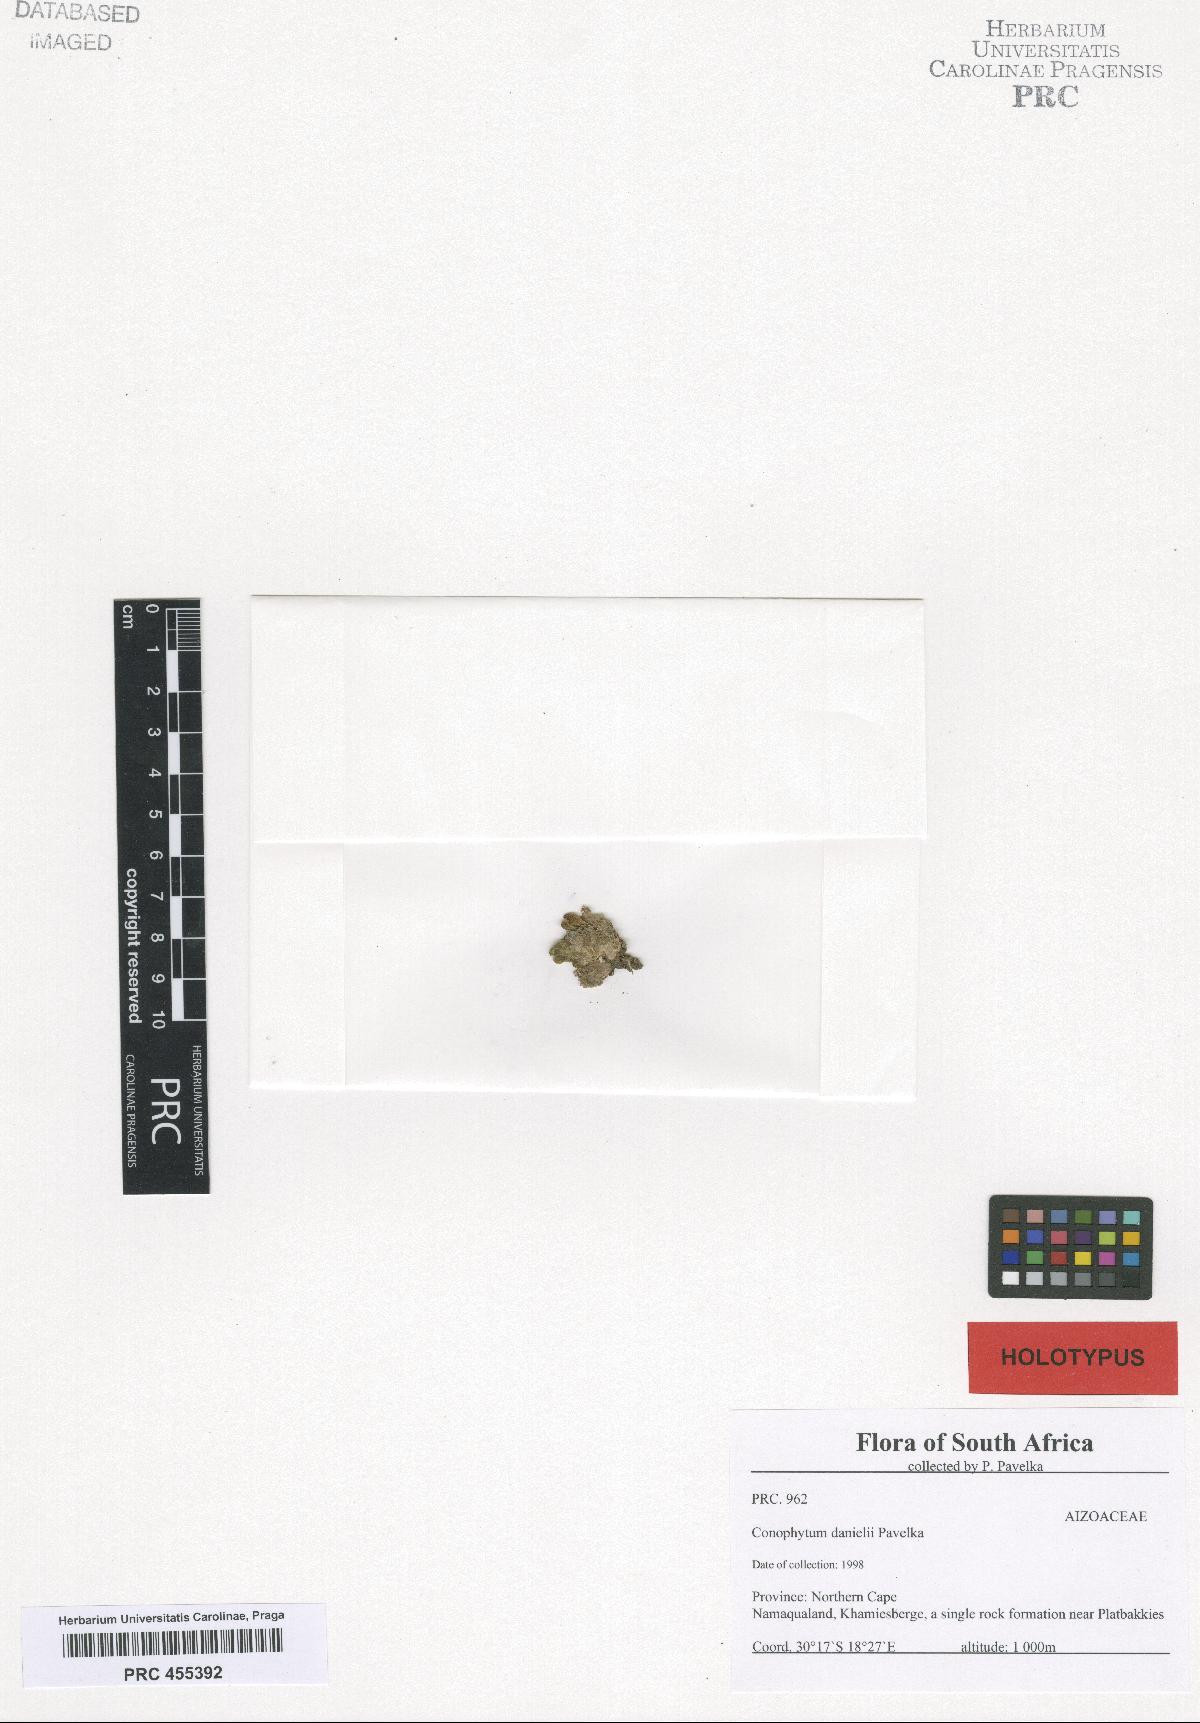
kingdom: Plantae
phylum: Tracheophyta
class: Magnoliopsida
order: Caryophyllales
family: Aizoaceae
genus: Conophytum
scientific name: Conophytum jarmilae
